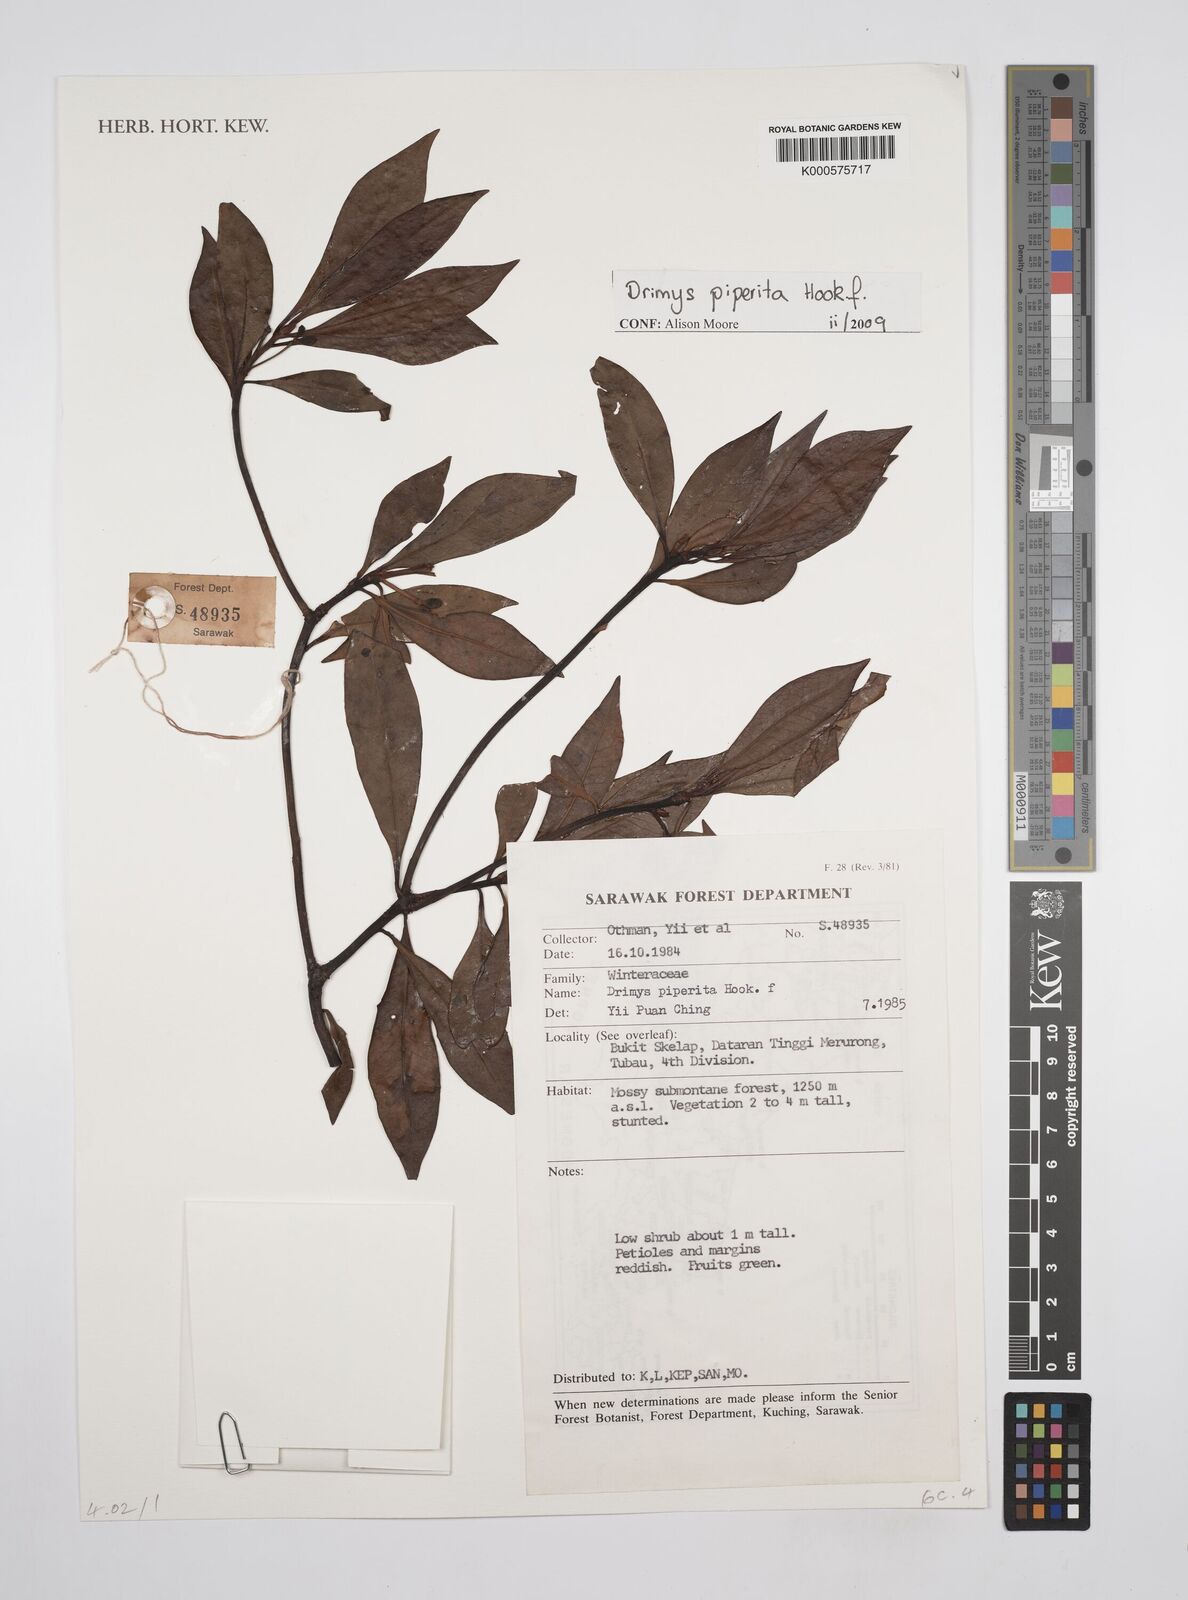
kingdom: Plantae
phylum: Tracheophyta
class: Magnoliopsida
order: Canellales
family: Winteraceae
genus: Drimys
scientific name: Drimys piperita
